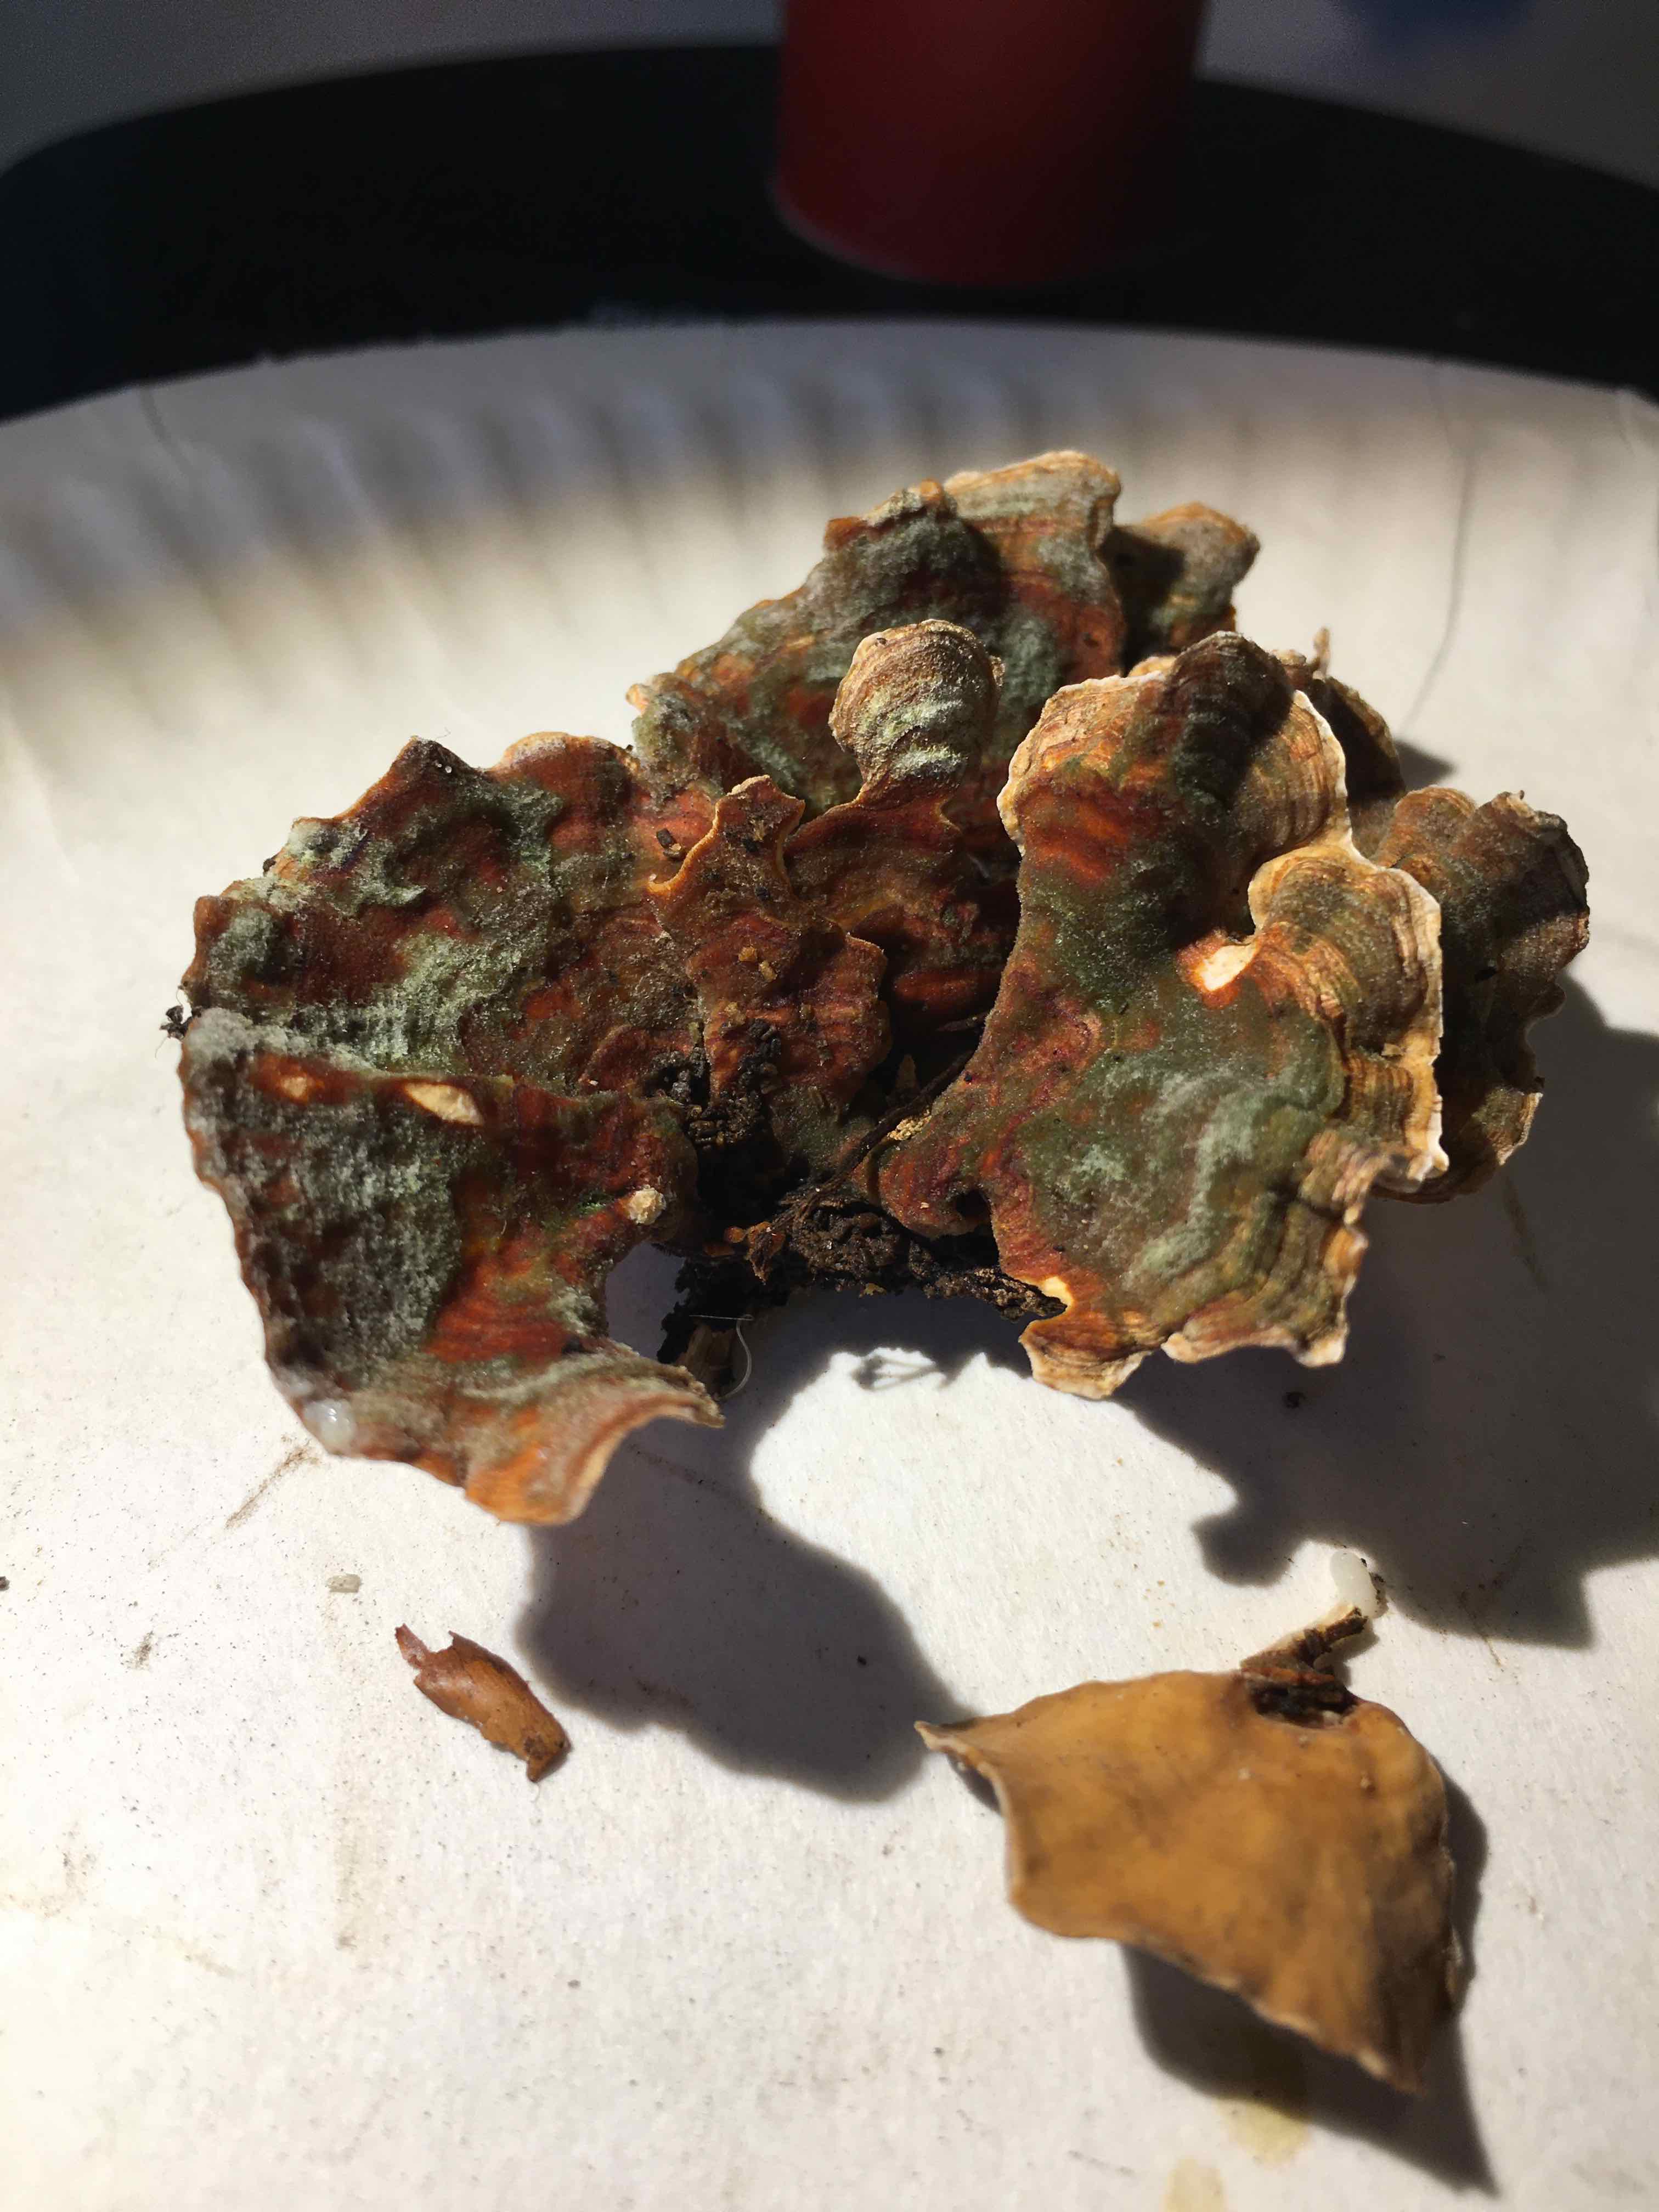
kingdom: Fungi
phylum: Basidiomycota
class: Agaricomycetes
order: Russulales
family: Stereaceae
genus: Stereum
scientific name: Stereum hirsutum
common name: håret lædersvamp
